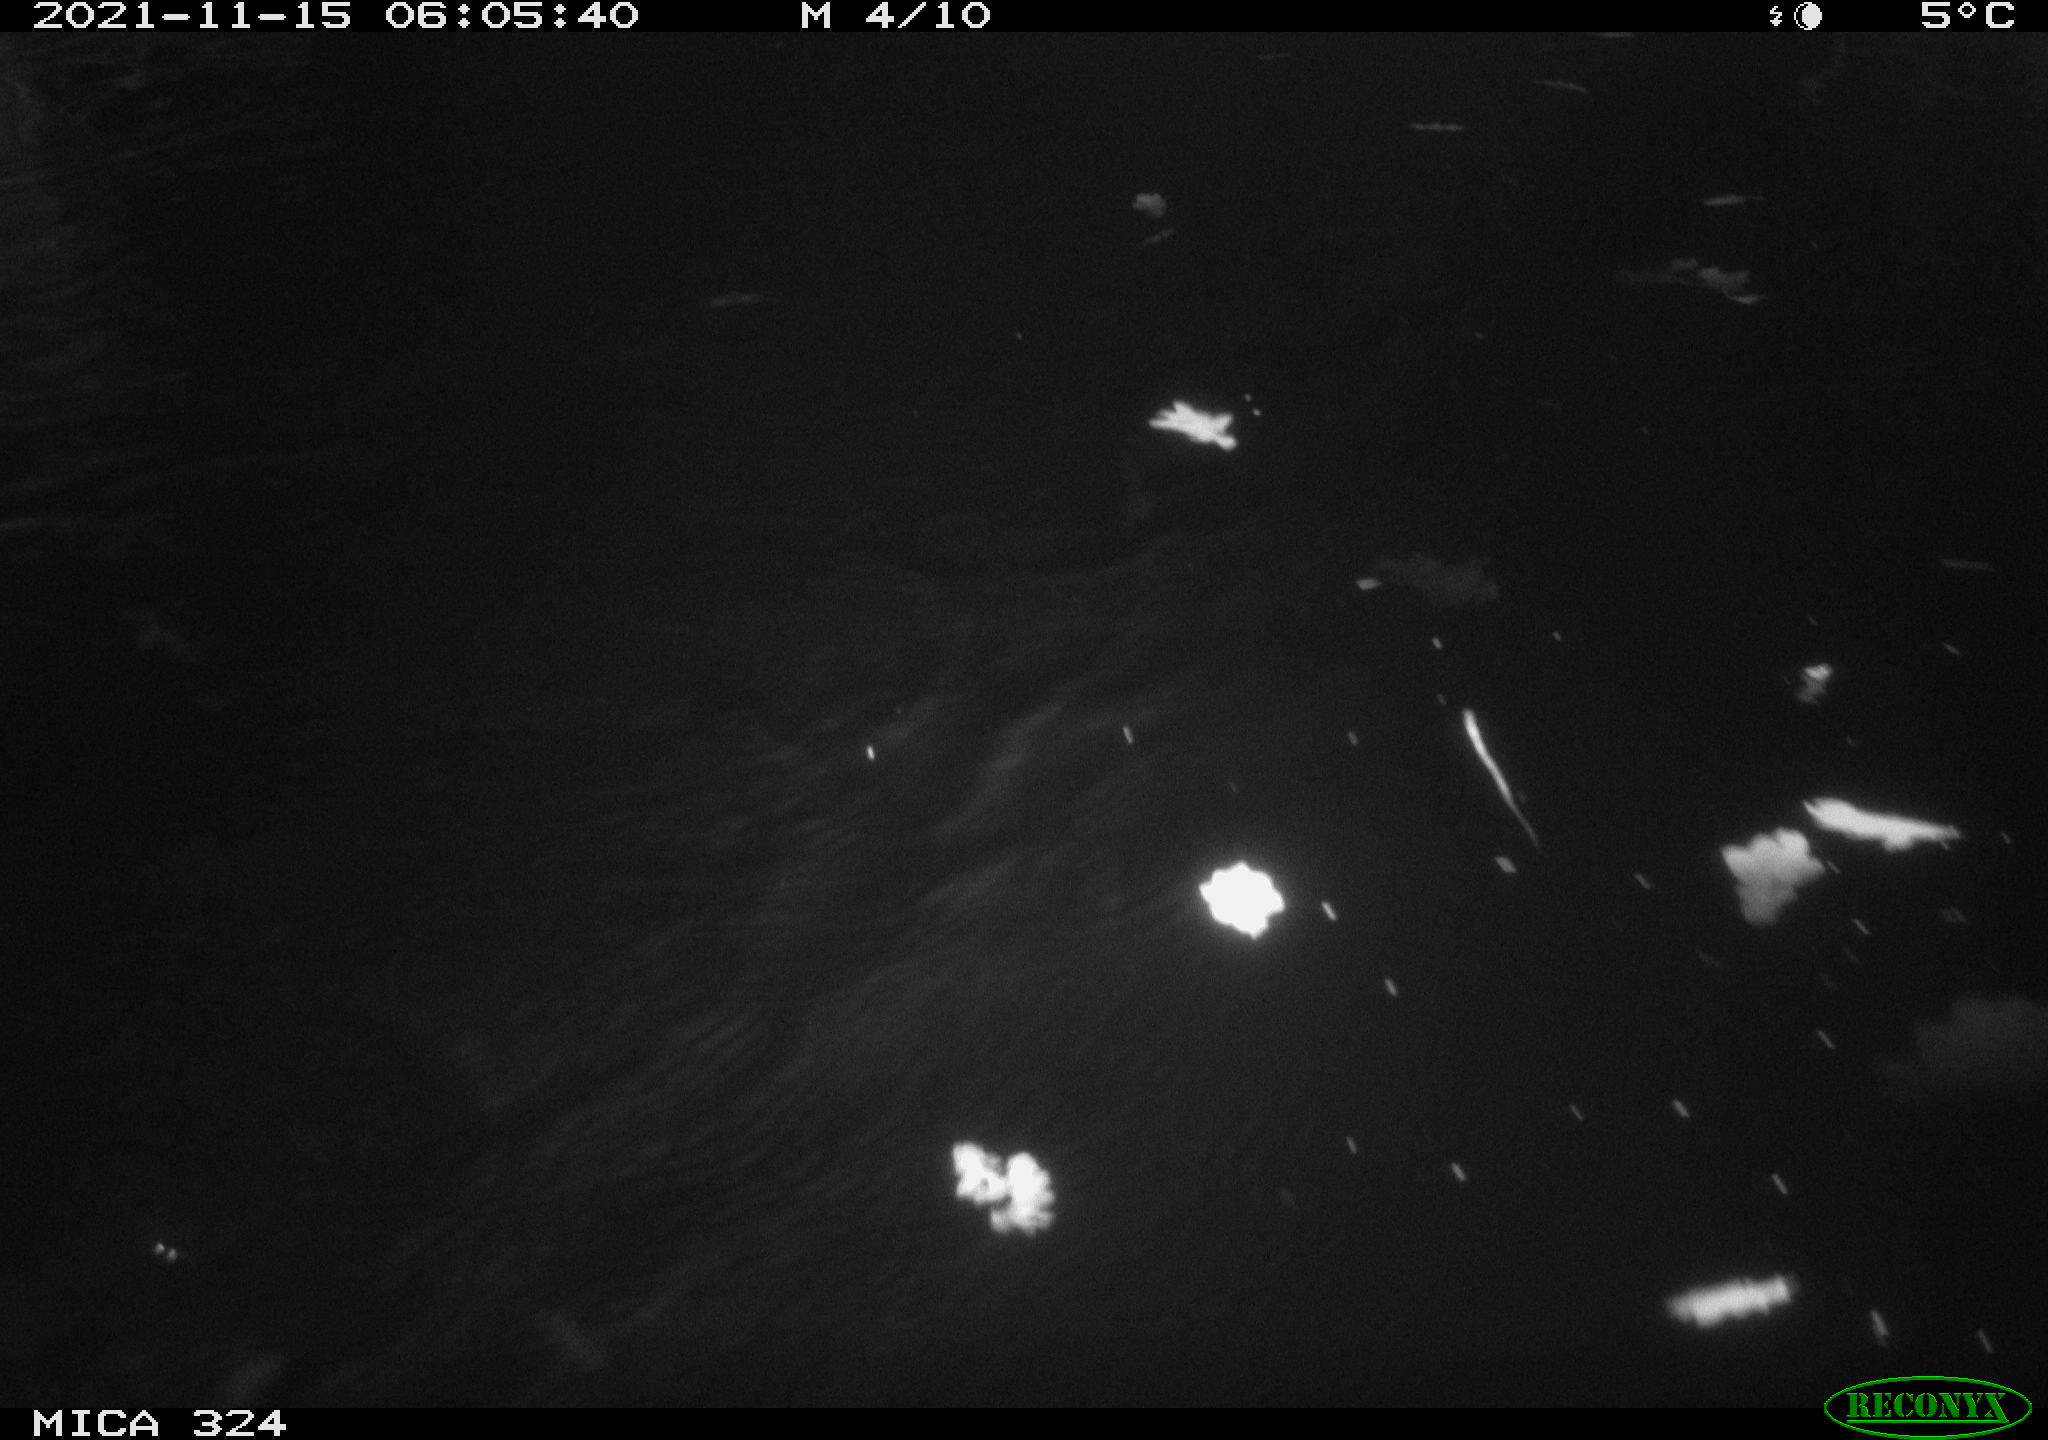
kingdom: Animalia
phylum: Chordata
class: Mammalia
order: Rodentia
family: Cricetidae
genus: Ondatra
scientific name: Ondatra zibethicus
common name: Muskrat
